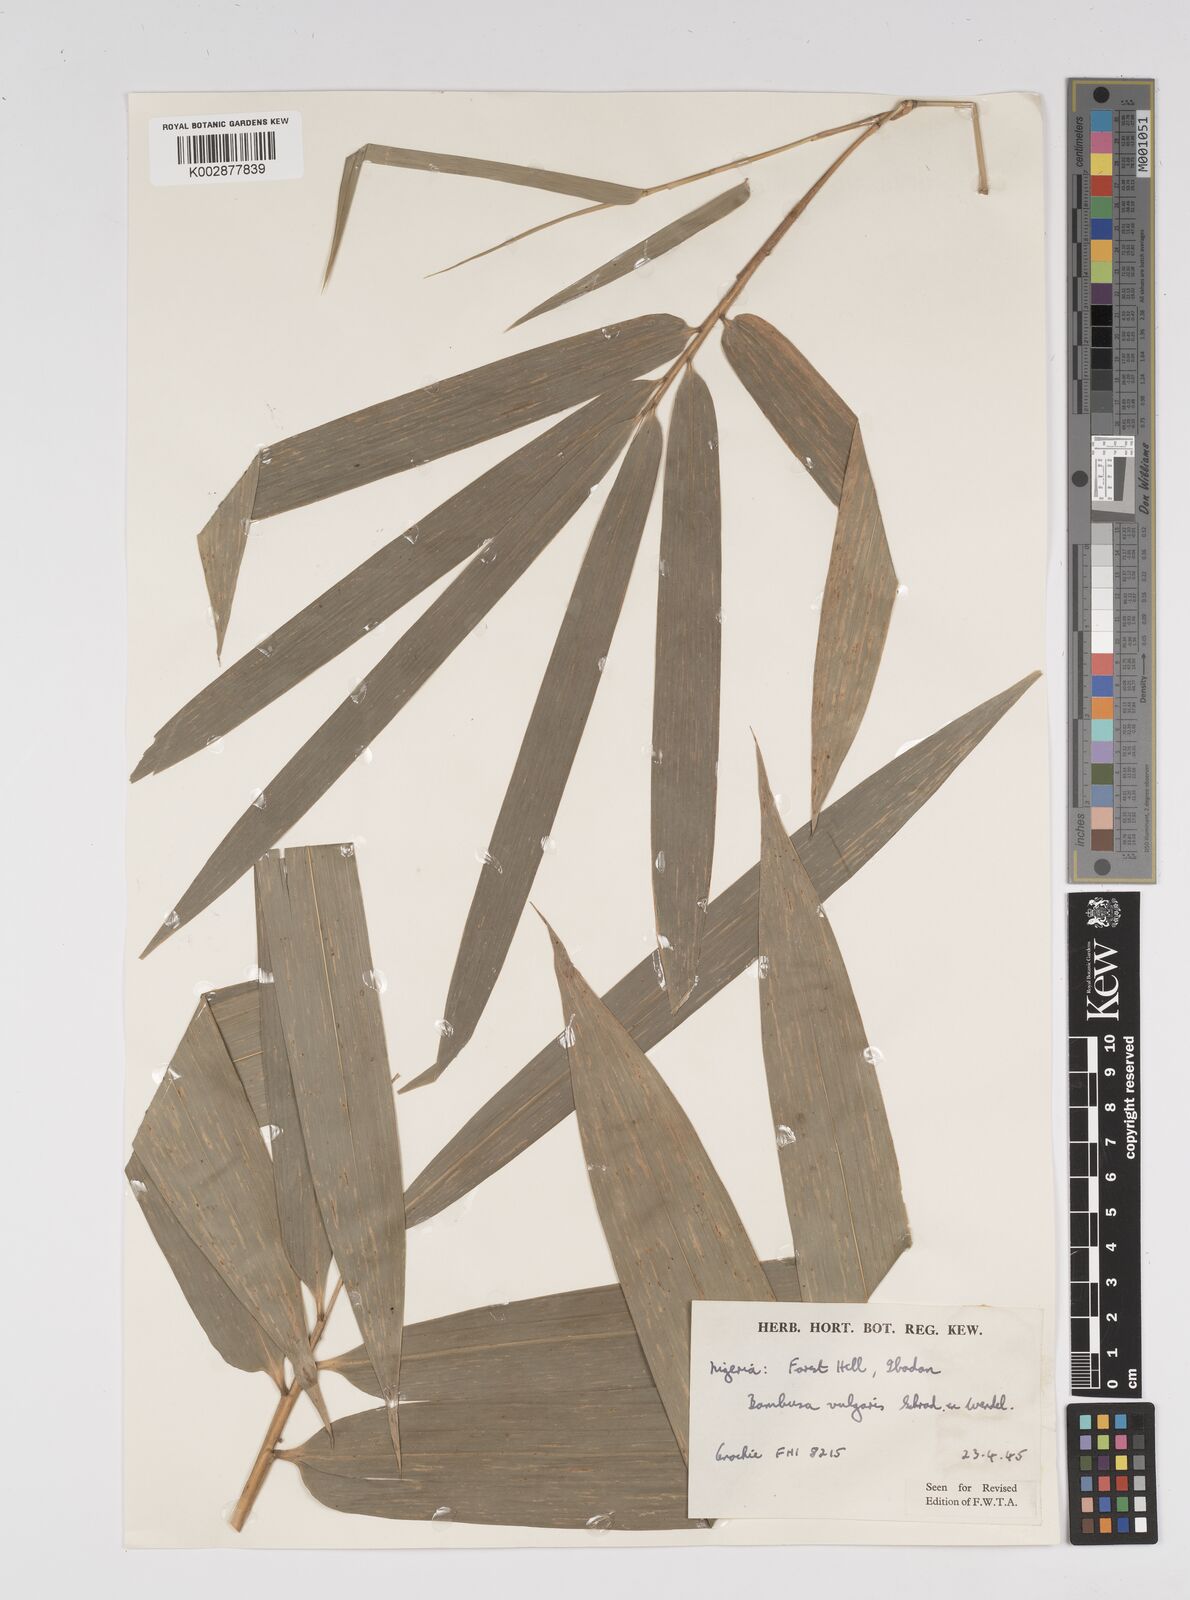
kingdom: Plantae
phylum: Tracheophyta
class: Liliopsida
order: Poales
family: Poaceae
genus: Bambusa
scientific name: Bambusa vulgaris
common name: Common bamboo
